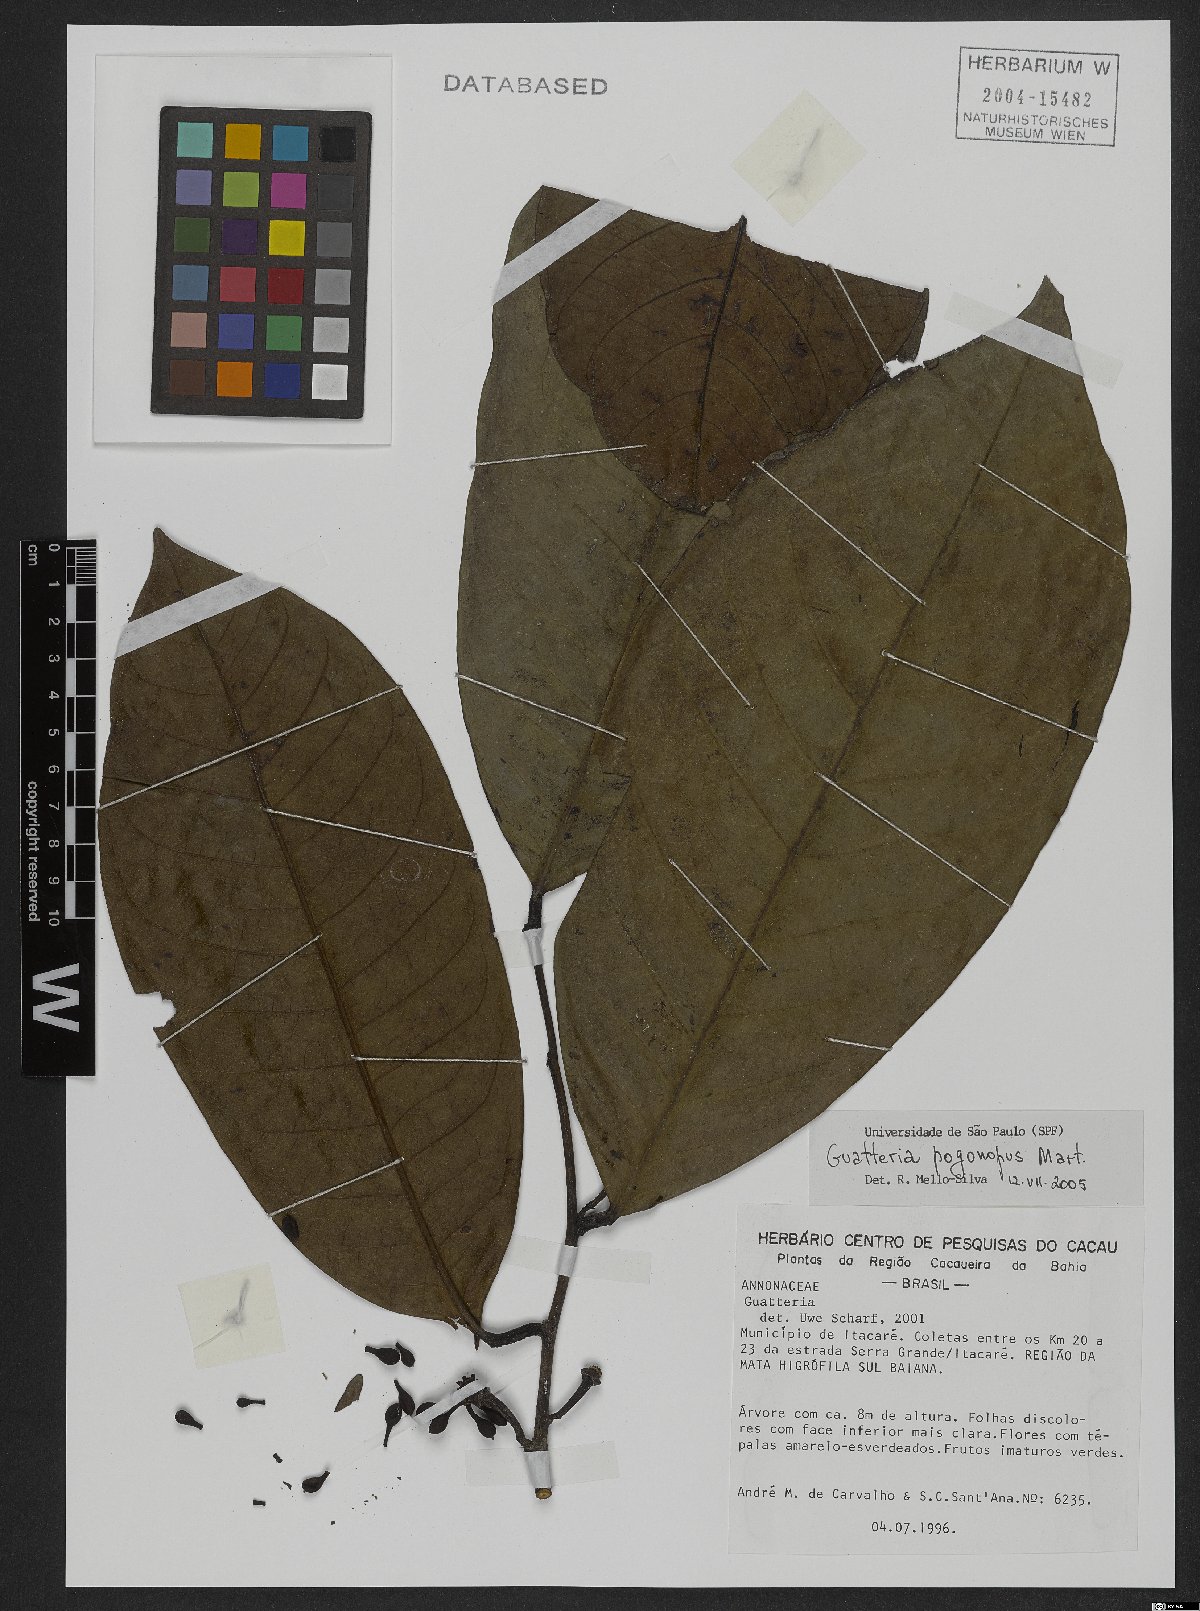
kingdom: Plantae
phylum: Tracheophyta
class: Magnoliopsida
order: Magnoliales
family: Annonaceae
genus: Guatteria
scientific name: Guatteria pogonopus
